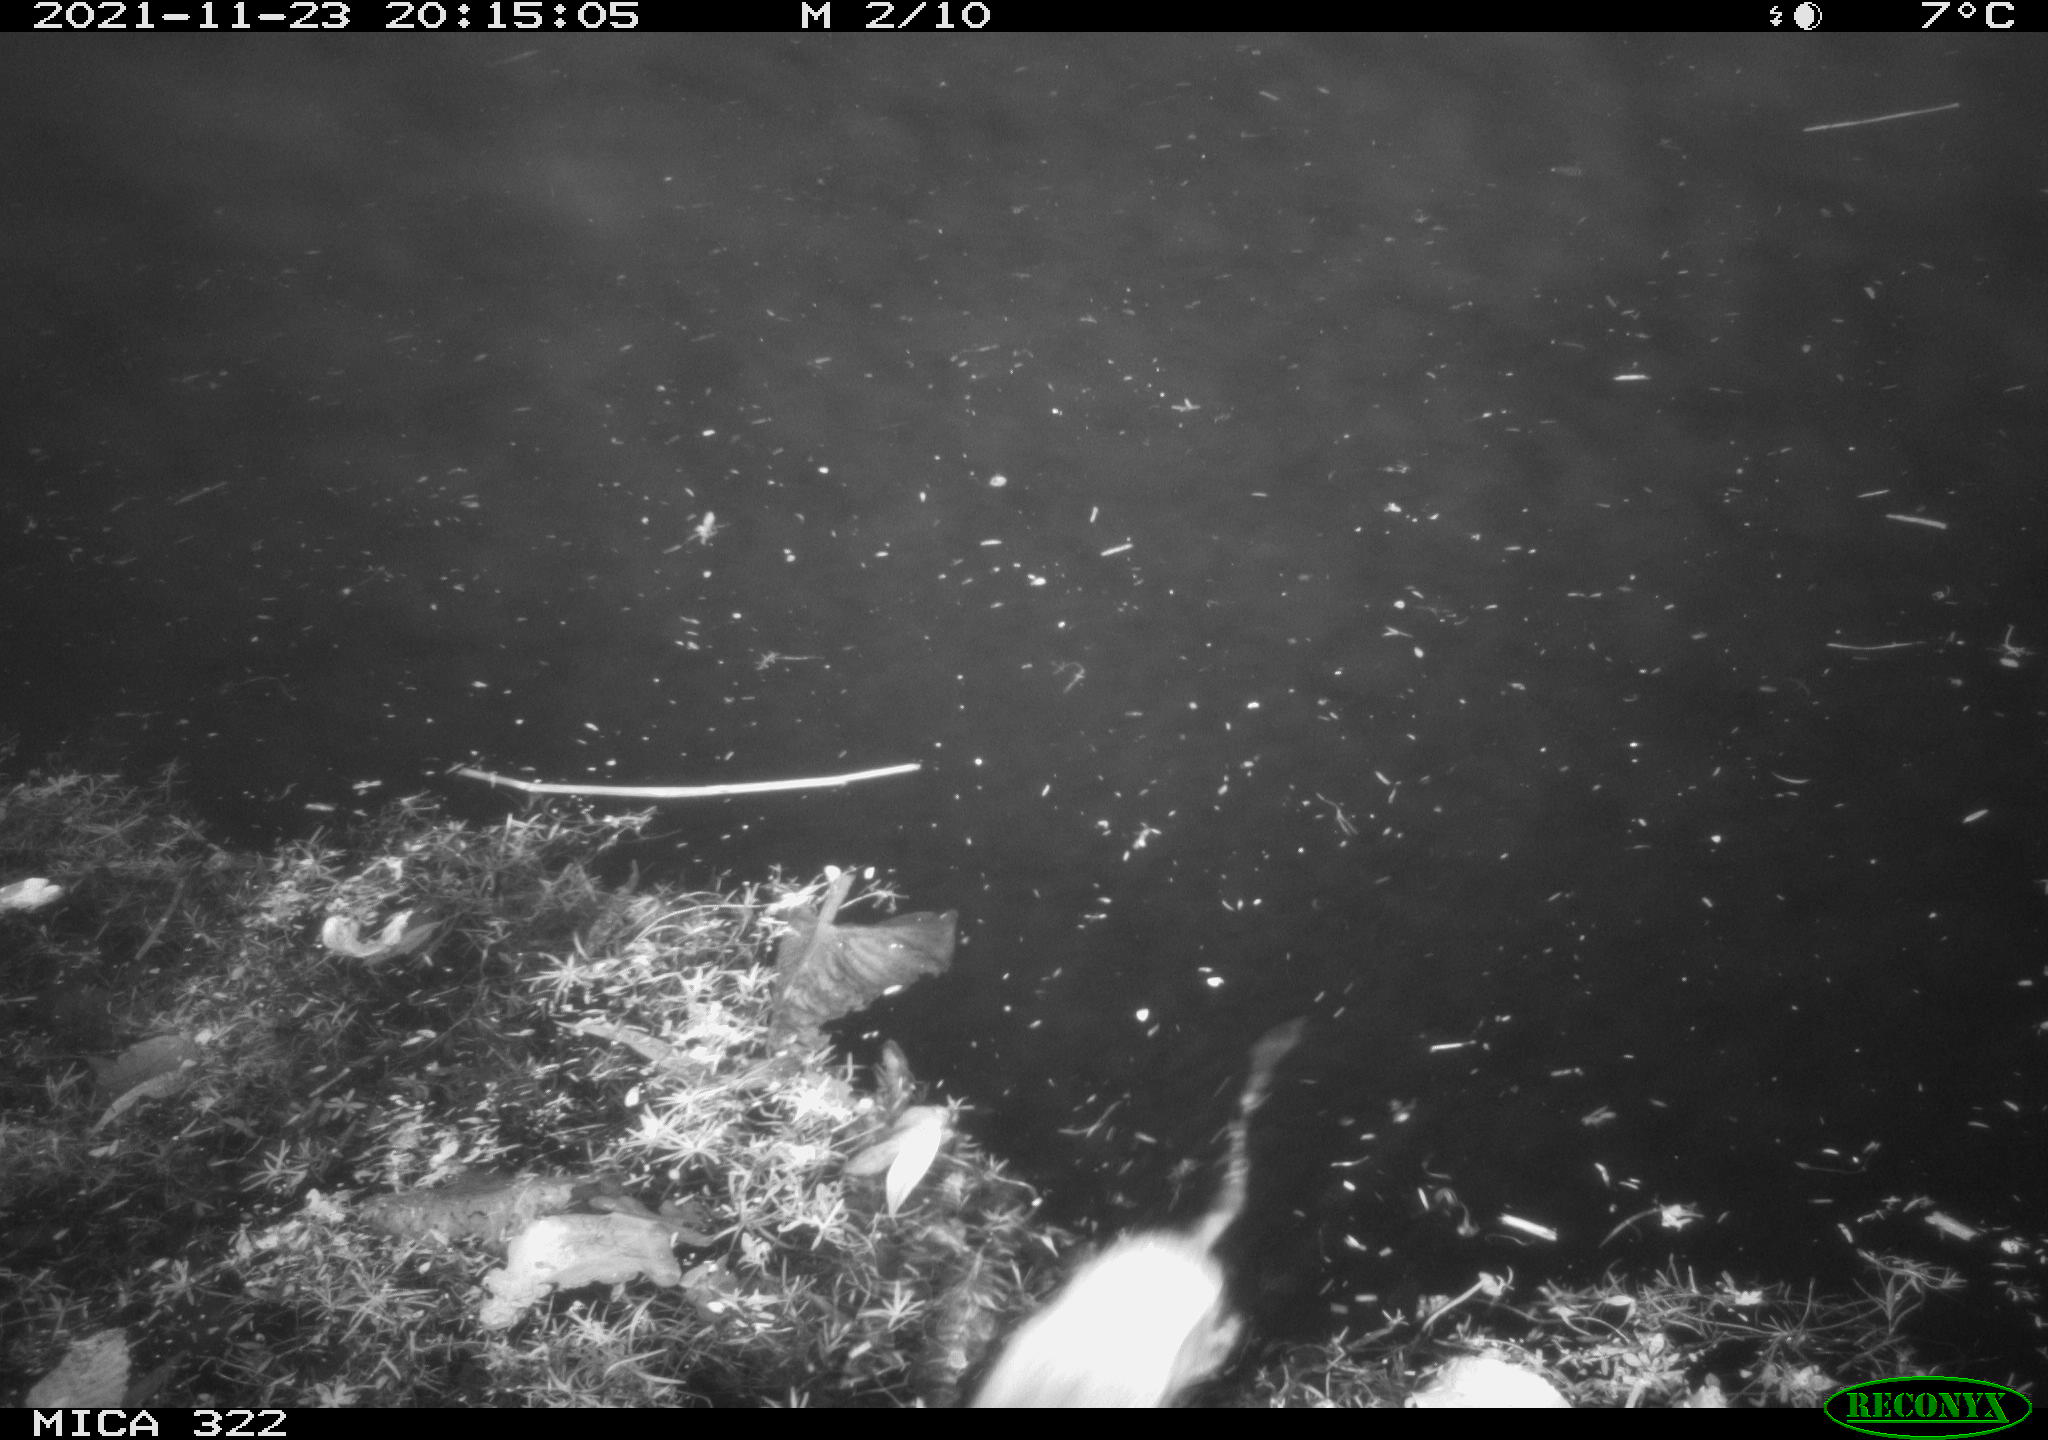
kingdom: Animalia
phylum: Chordata
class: Mammalia
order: Rodentia
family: Cricetidae
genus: Ondatra
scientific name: Ondatra zibethicus
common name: Muskrat
